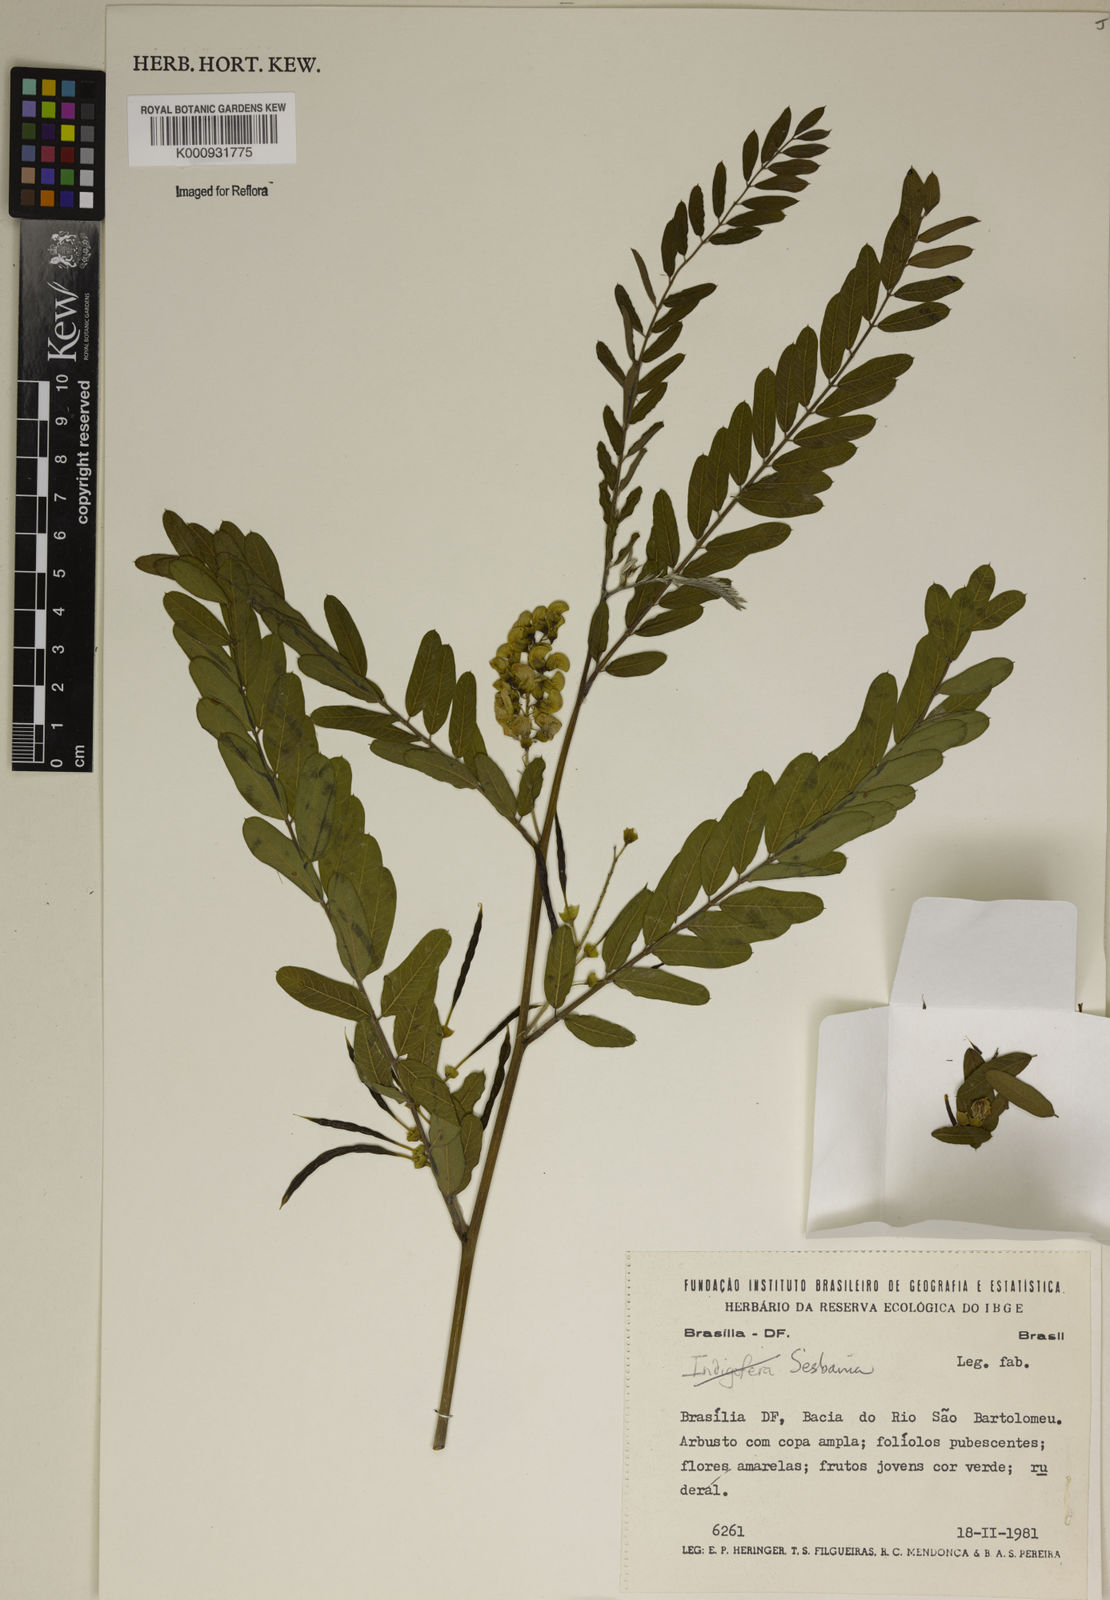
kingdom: Plantae
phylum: Tracheophyta
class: Magnoliopsida
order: Fabales
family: Fabaceae
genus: Sesbania
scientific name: Sesbania
